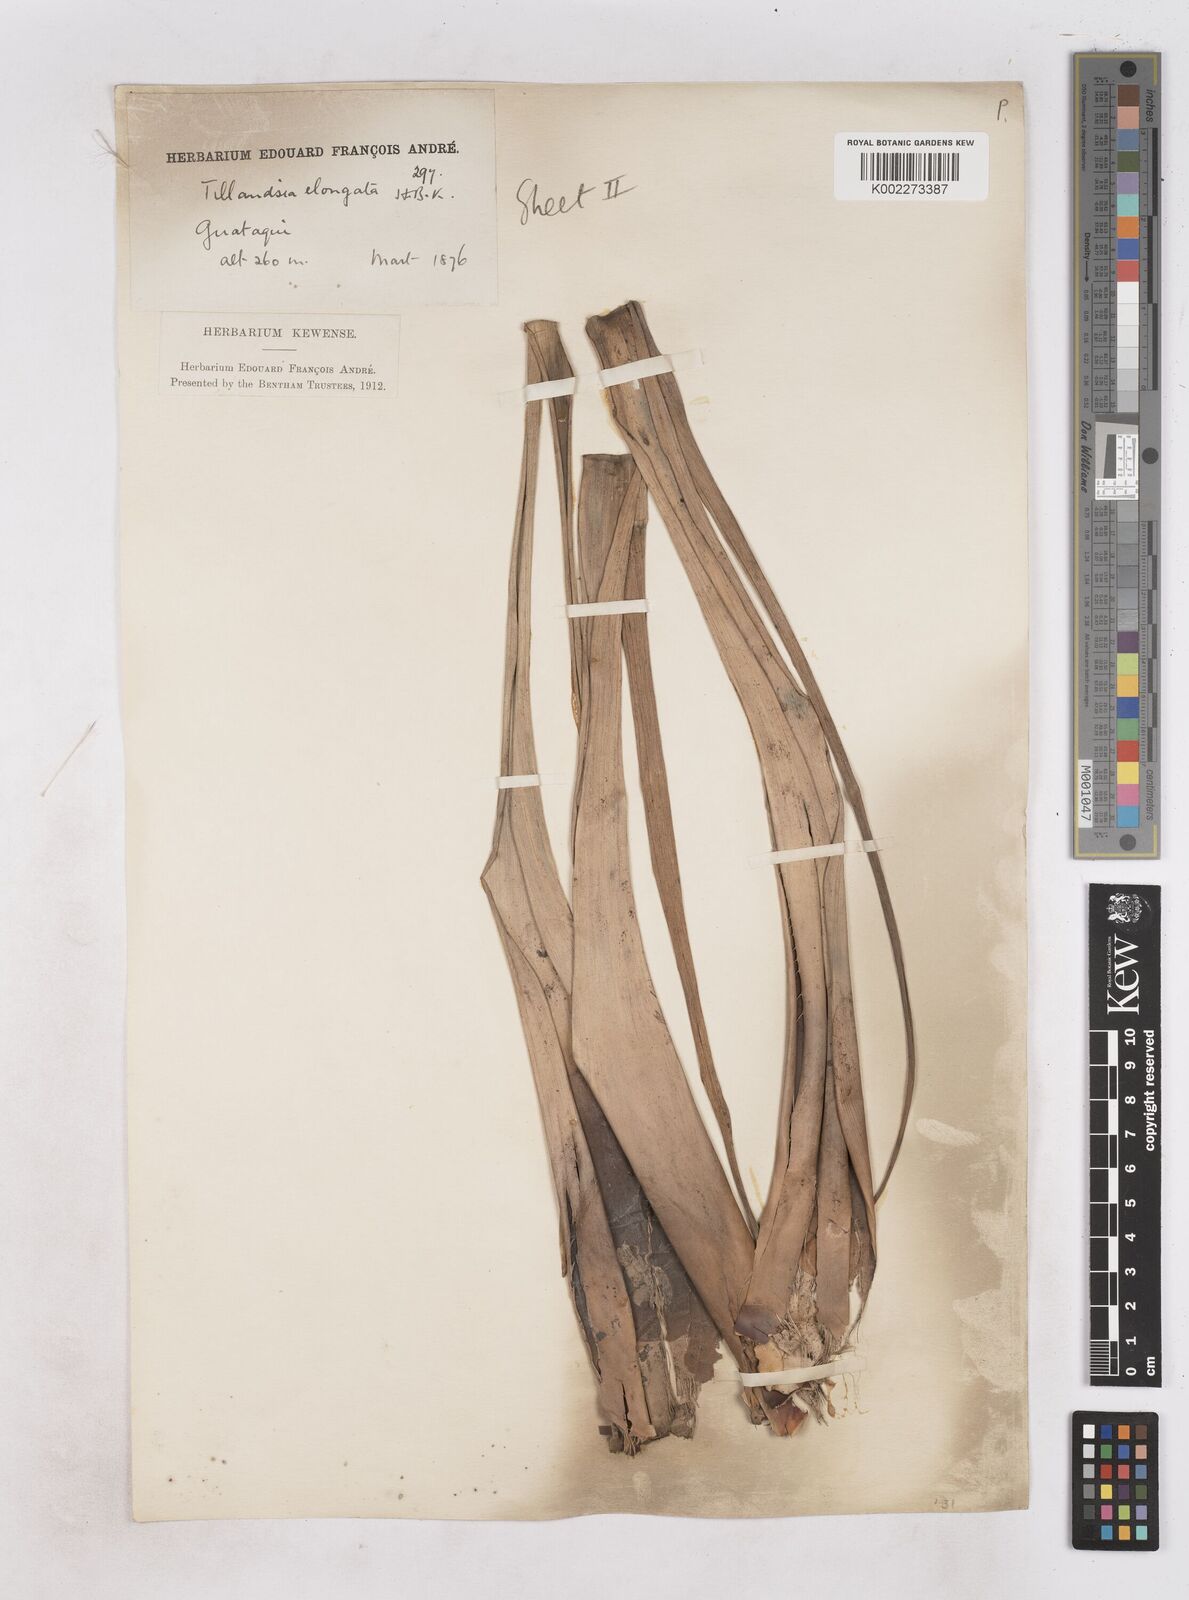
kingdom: Plantae
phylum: Tracheophyta
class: Liliopsida
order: Poales
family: Bromeliaceae
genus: Tillandsia
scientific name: Tillandsia elongata
